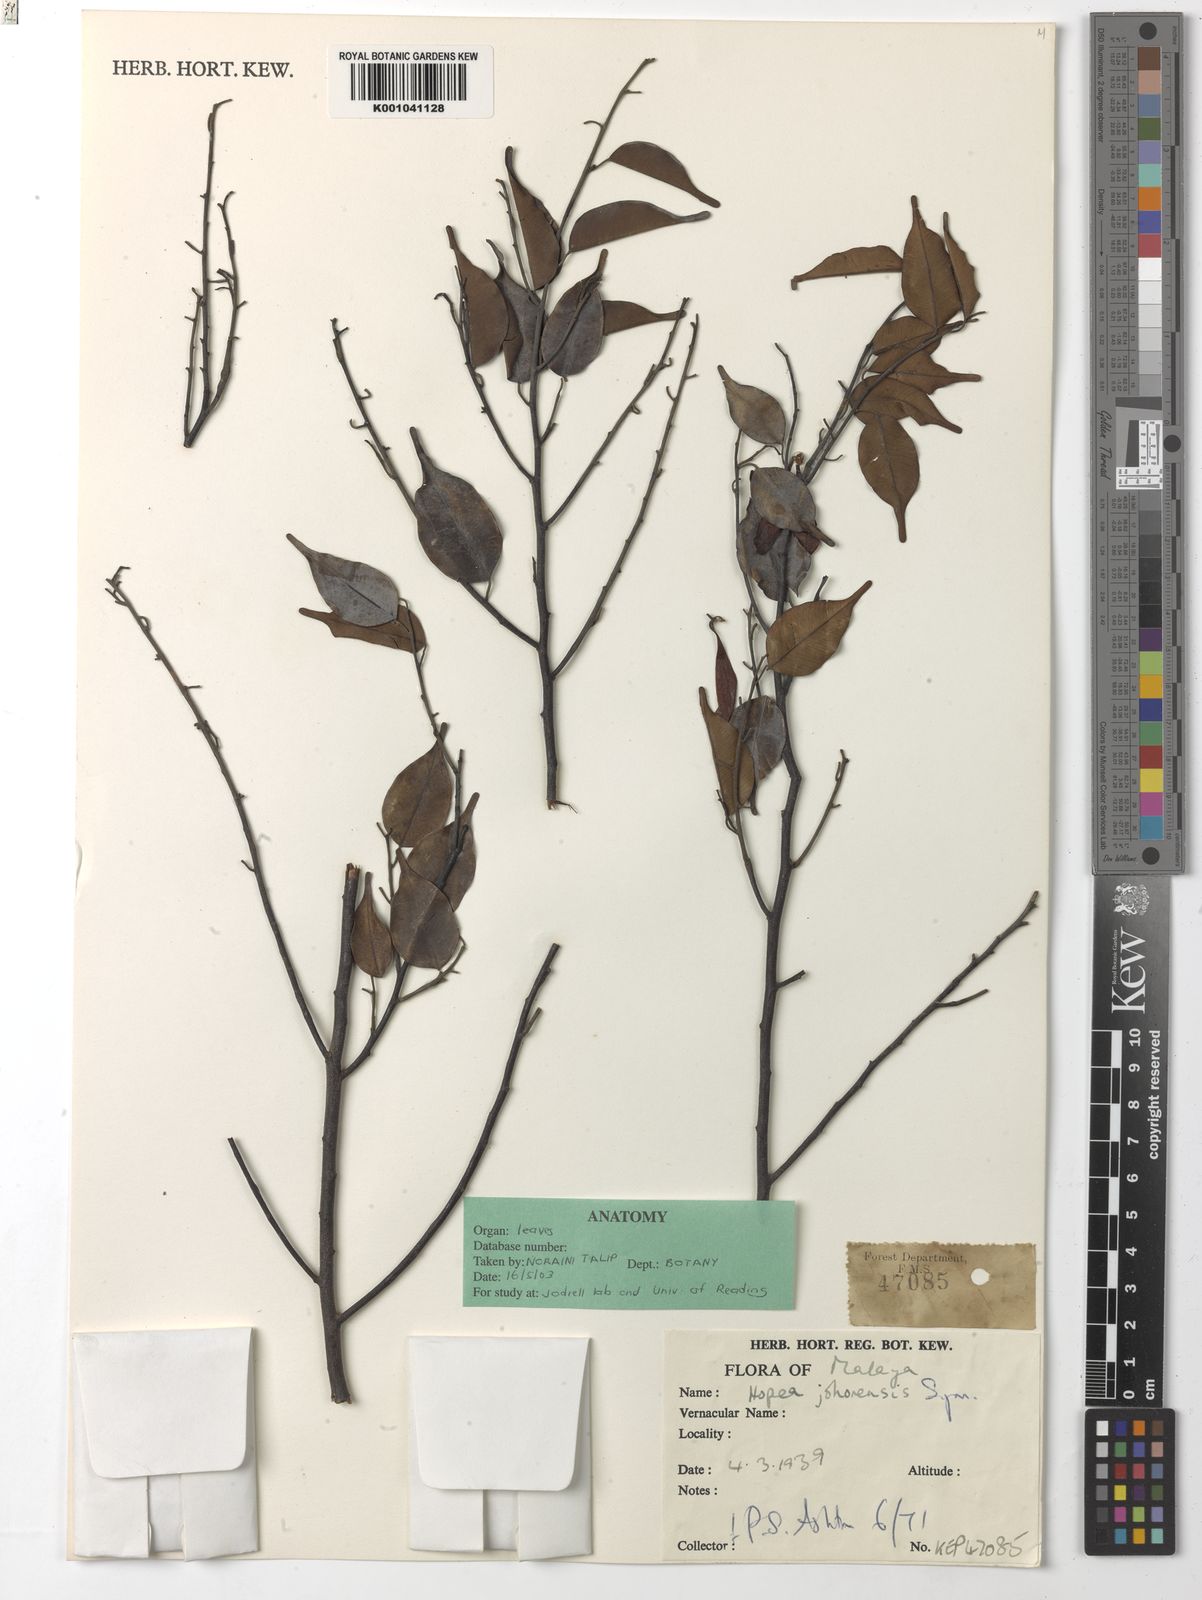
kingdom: Plantae
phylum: Tracheophyta
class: Magnoliopsida
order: Malvales
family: Dipterocarpaceae
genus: Hopea
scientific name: Hopea johorensis
